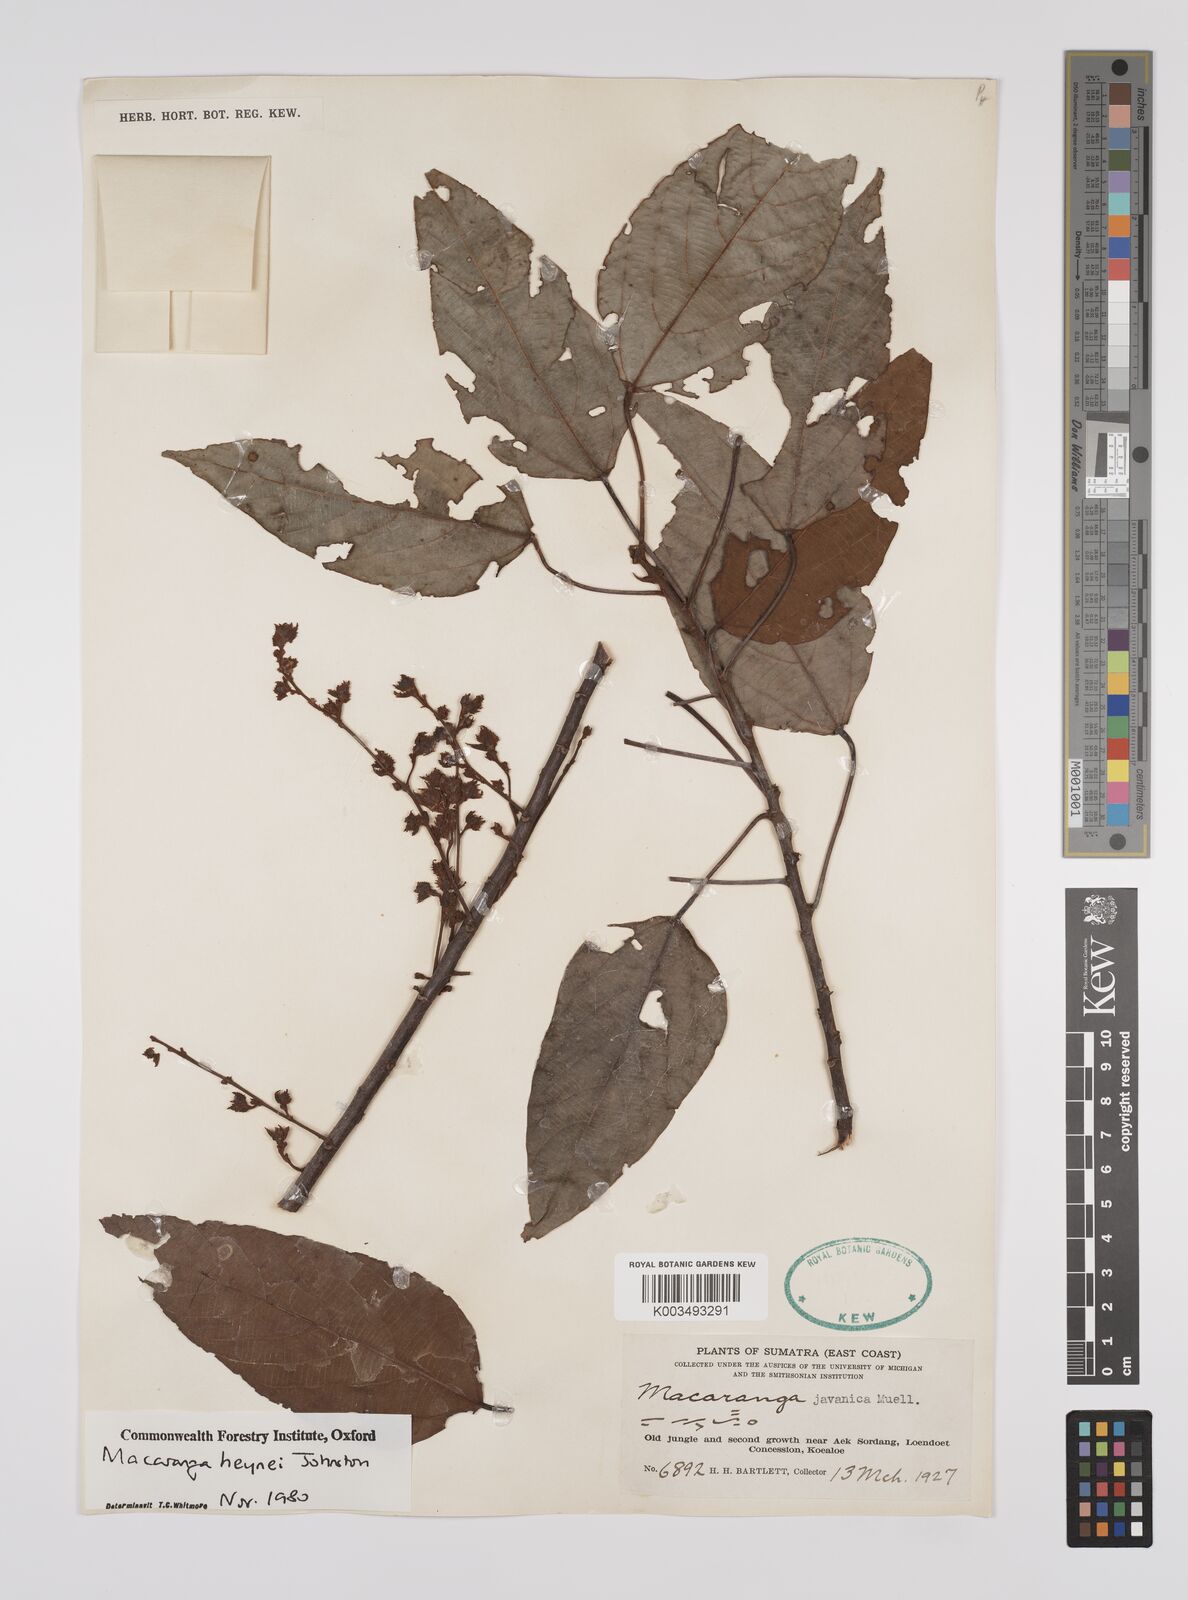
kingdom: Plantae
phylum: Tracheophyta
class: Magnoliopsida
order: Malpighiales
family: Euphorbiaceae
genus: Macaranga
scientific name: Macaranga heynei
